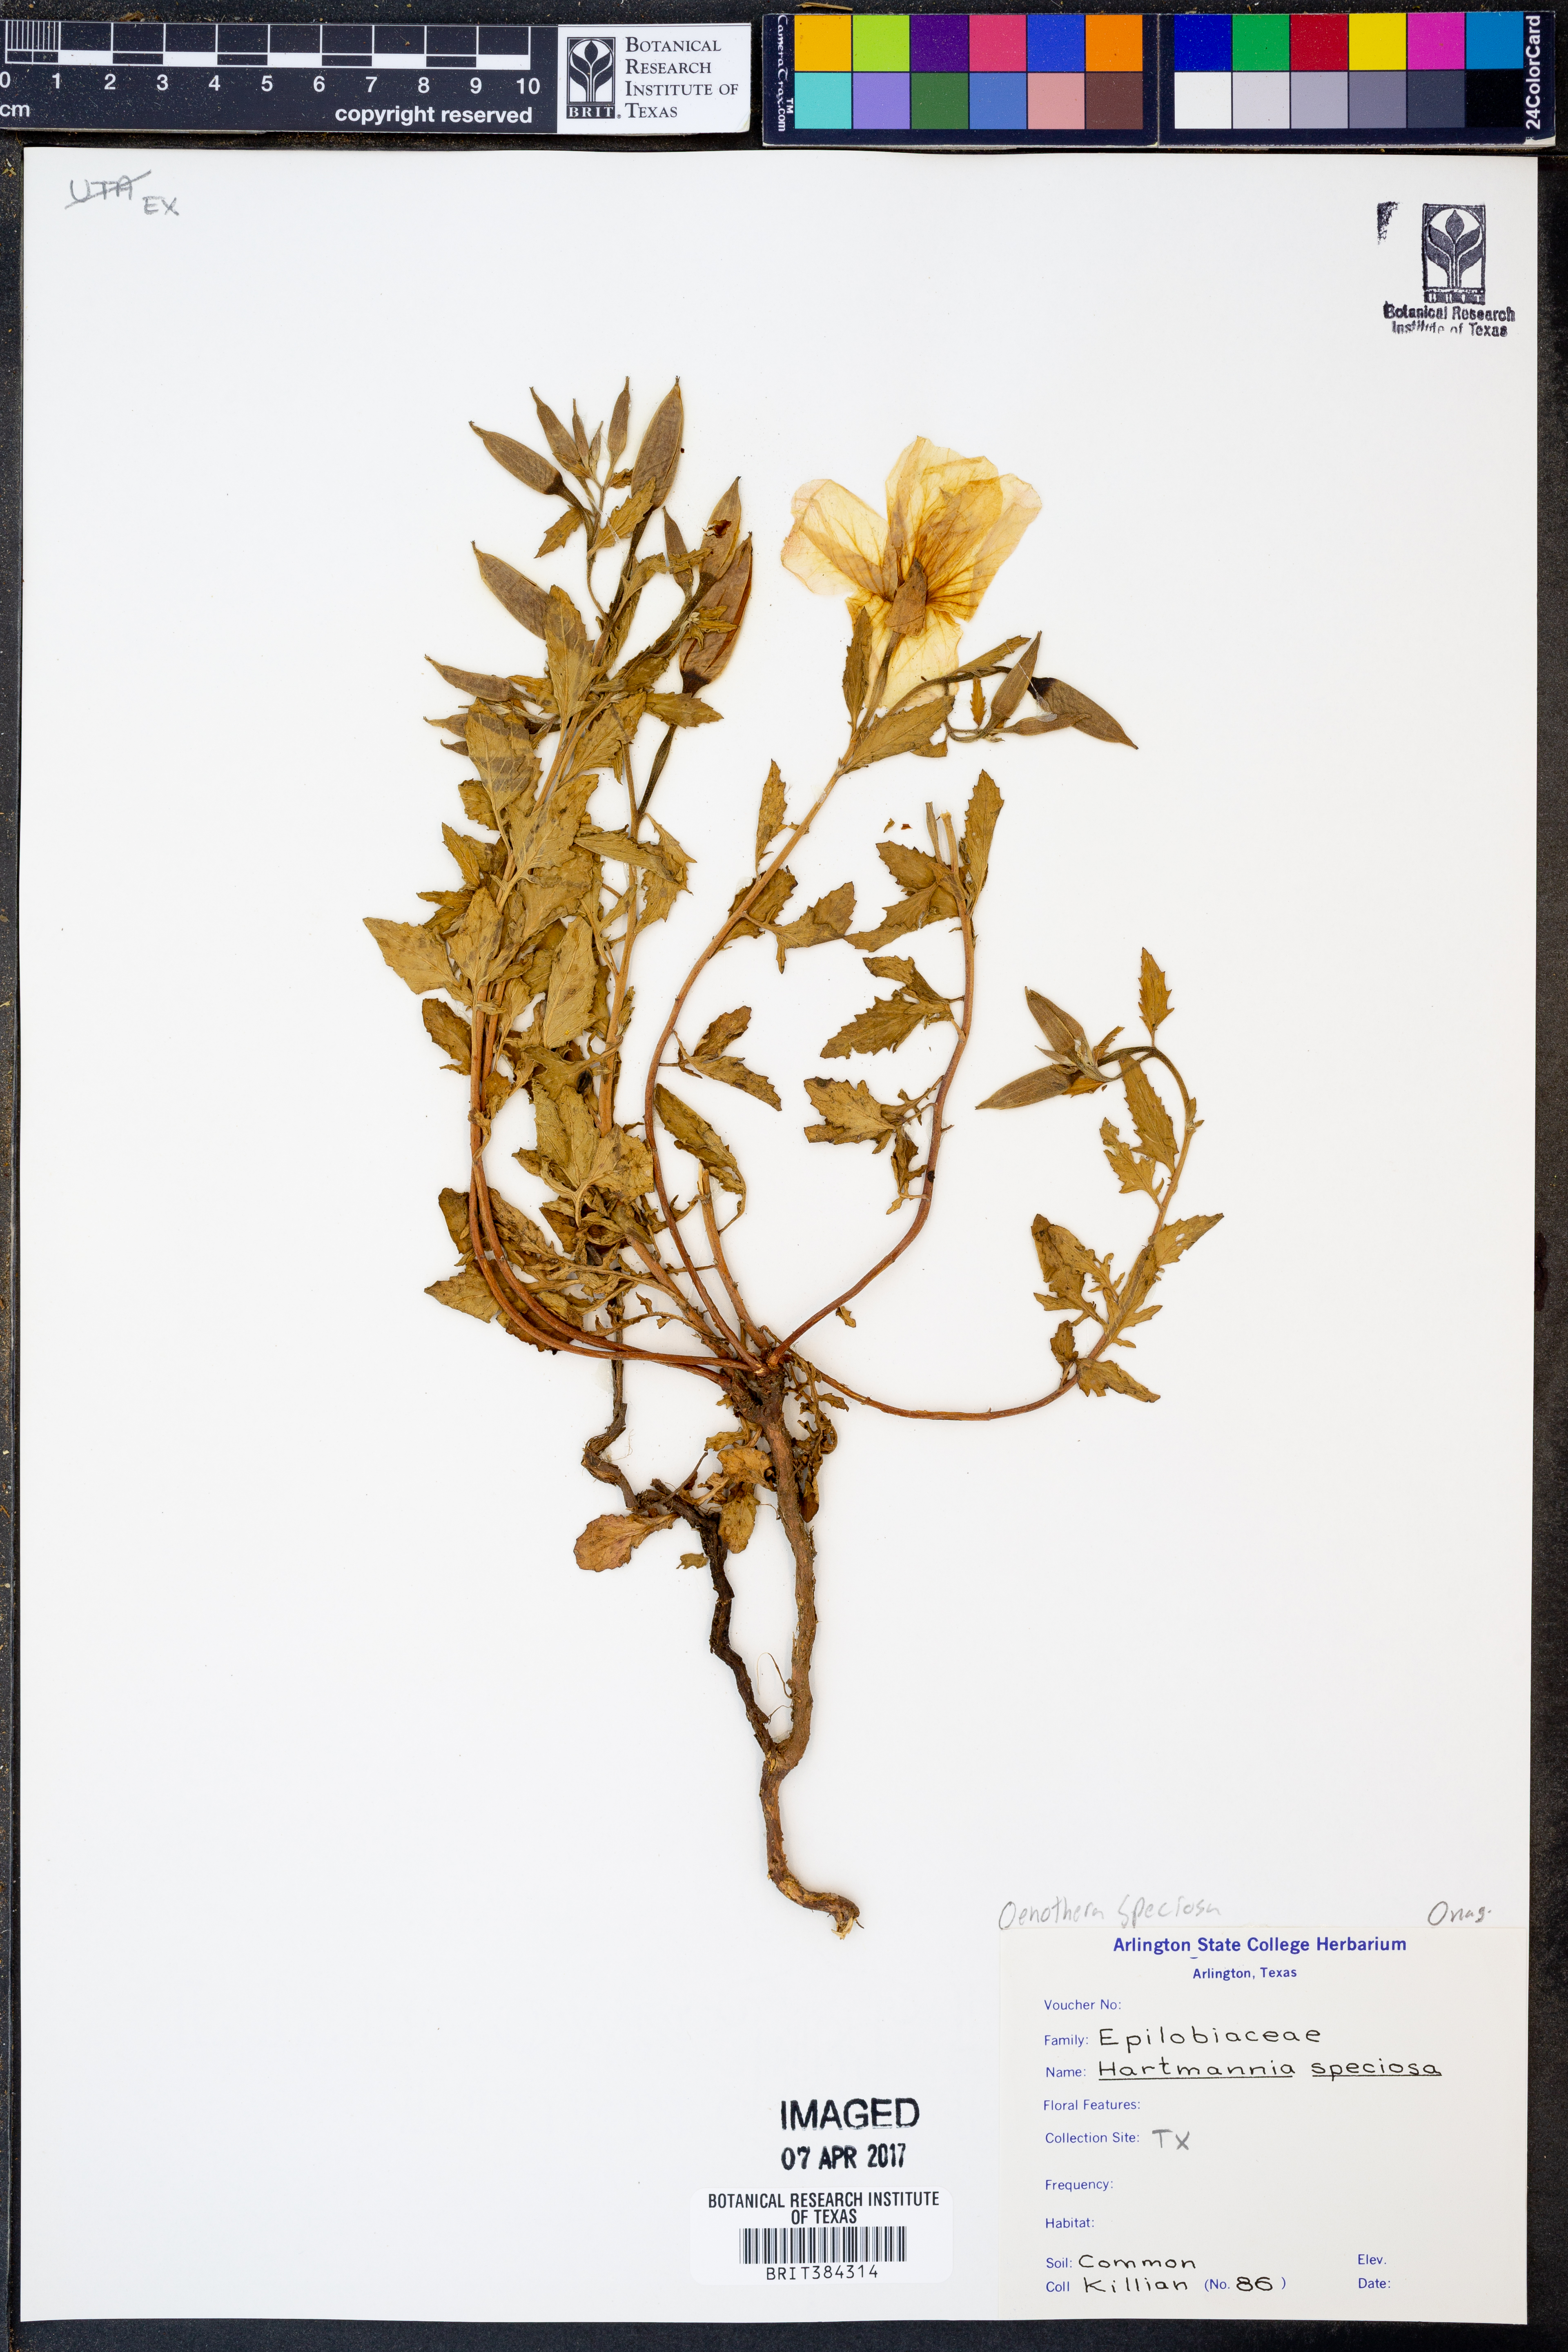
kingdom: Plantae
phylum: Tracheophyta
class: Magnoliopsida
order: Myrtales
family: Onagraceae
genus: Oenothera
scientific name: Oenothera speciosa
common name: White evening-primrose
